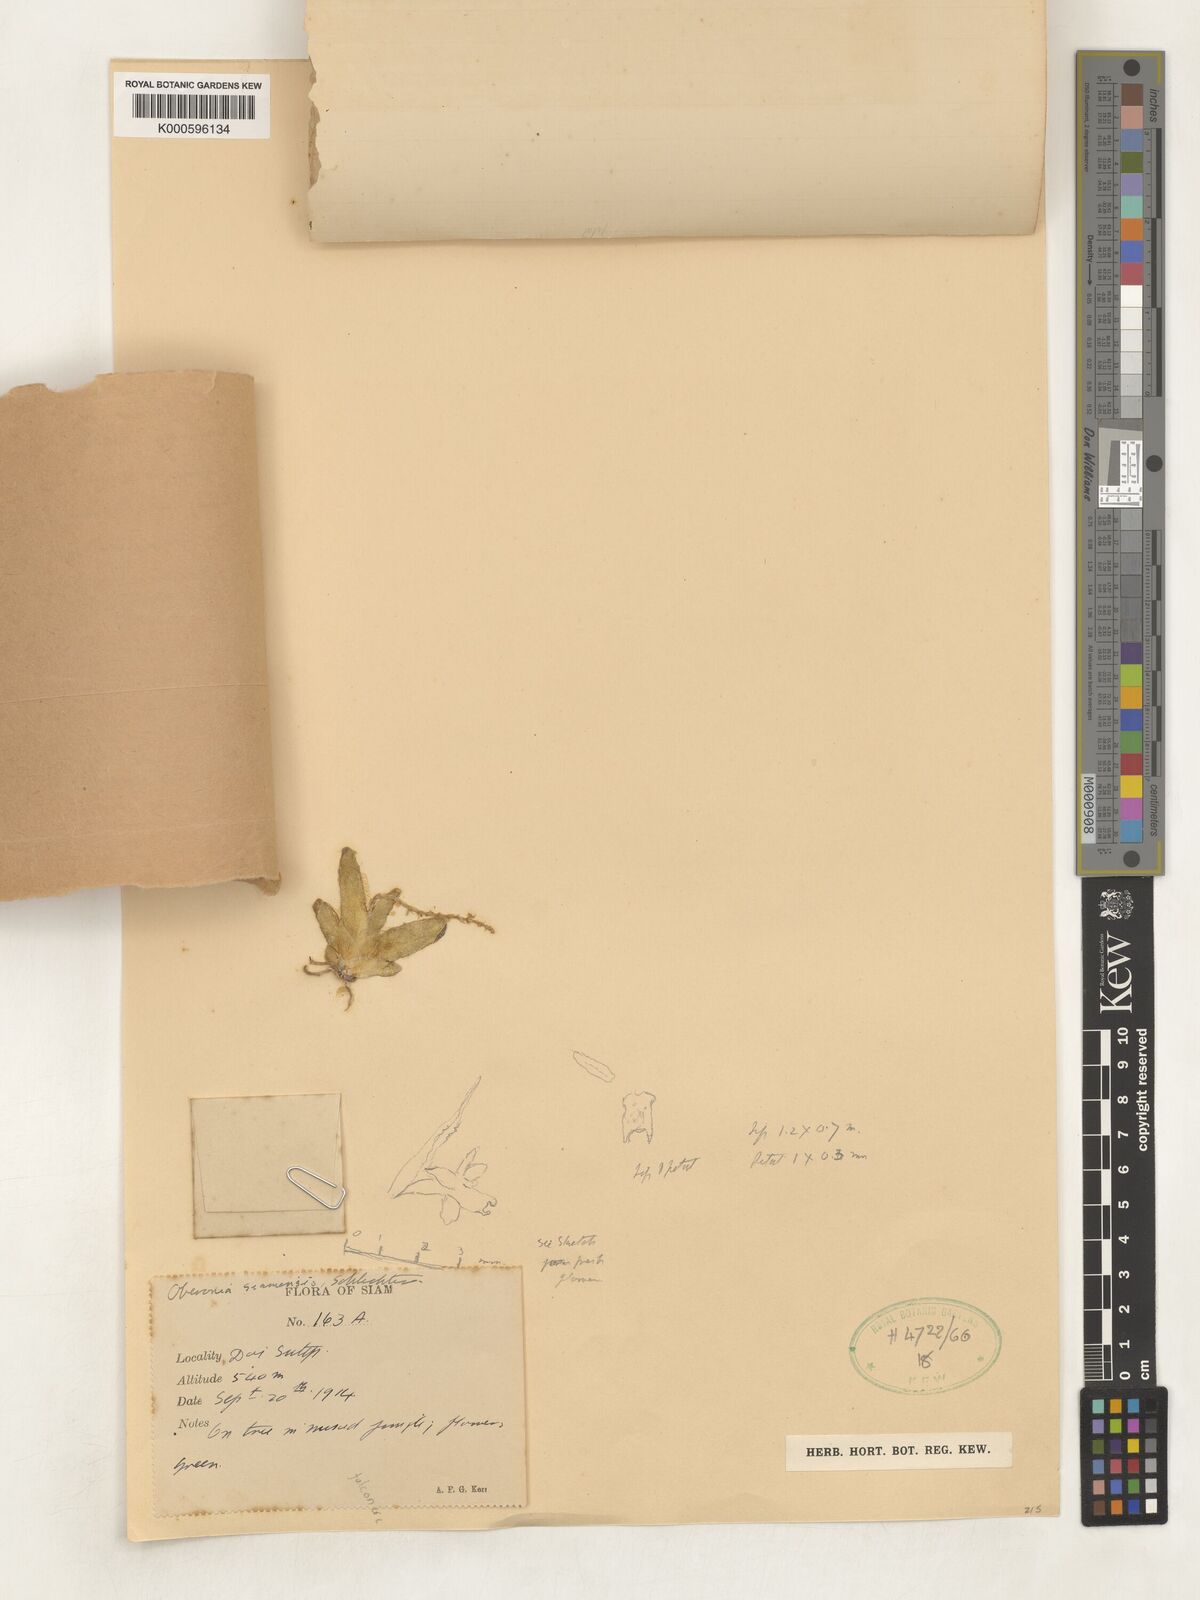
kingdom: Plantae
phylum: Tracheophyta
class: Liliopsida
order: Asparagales
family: Orchidaceae
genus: Oberonia
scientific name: Oberonia falconeri
